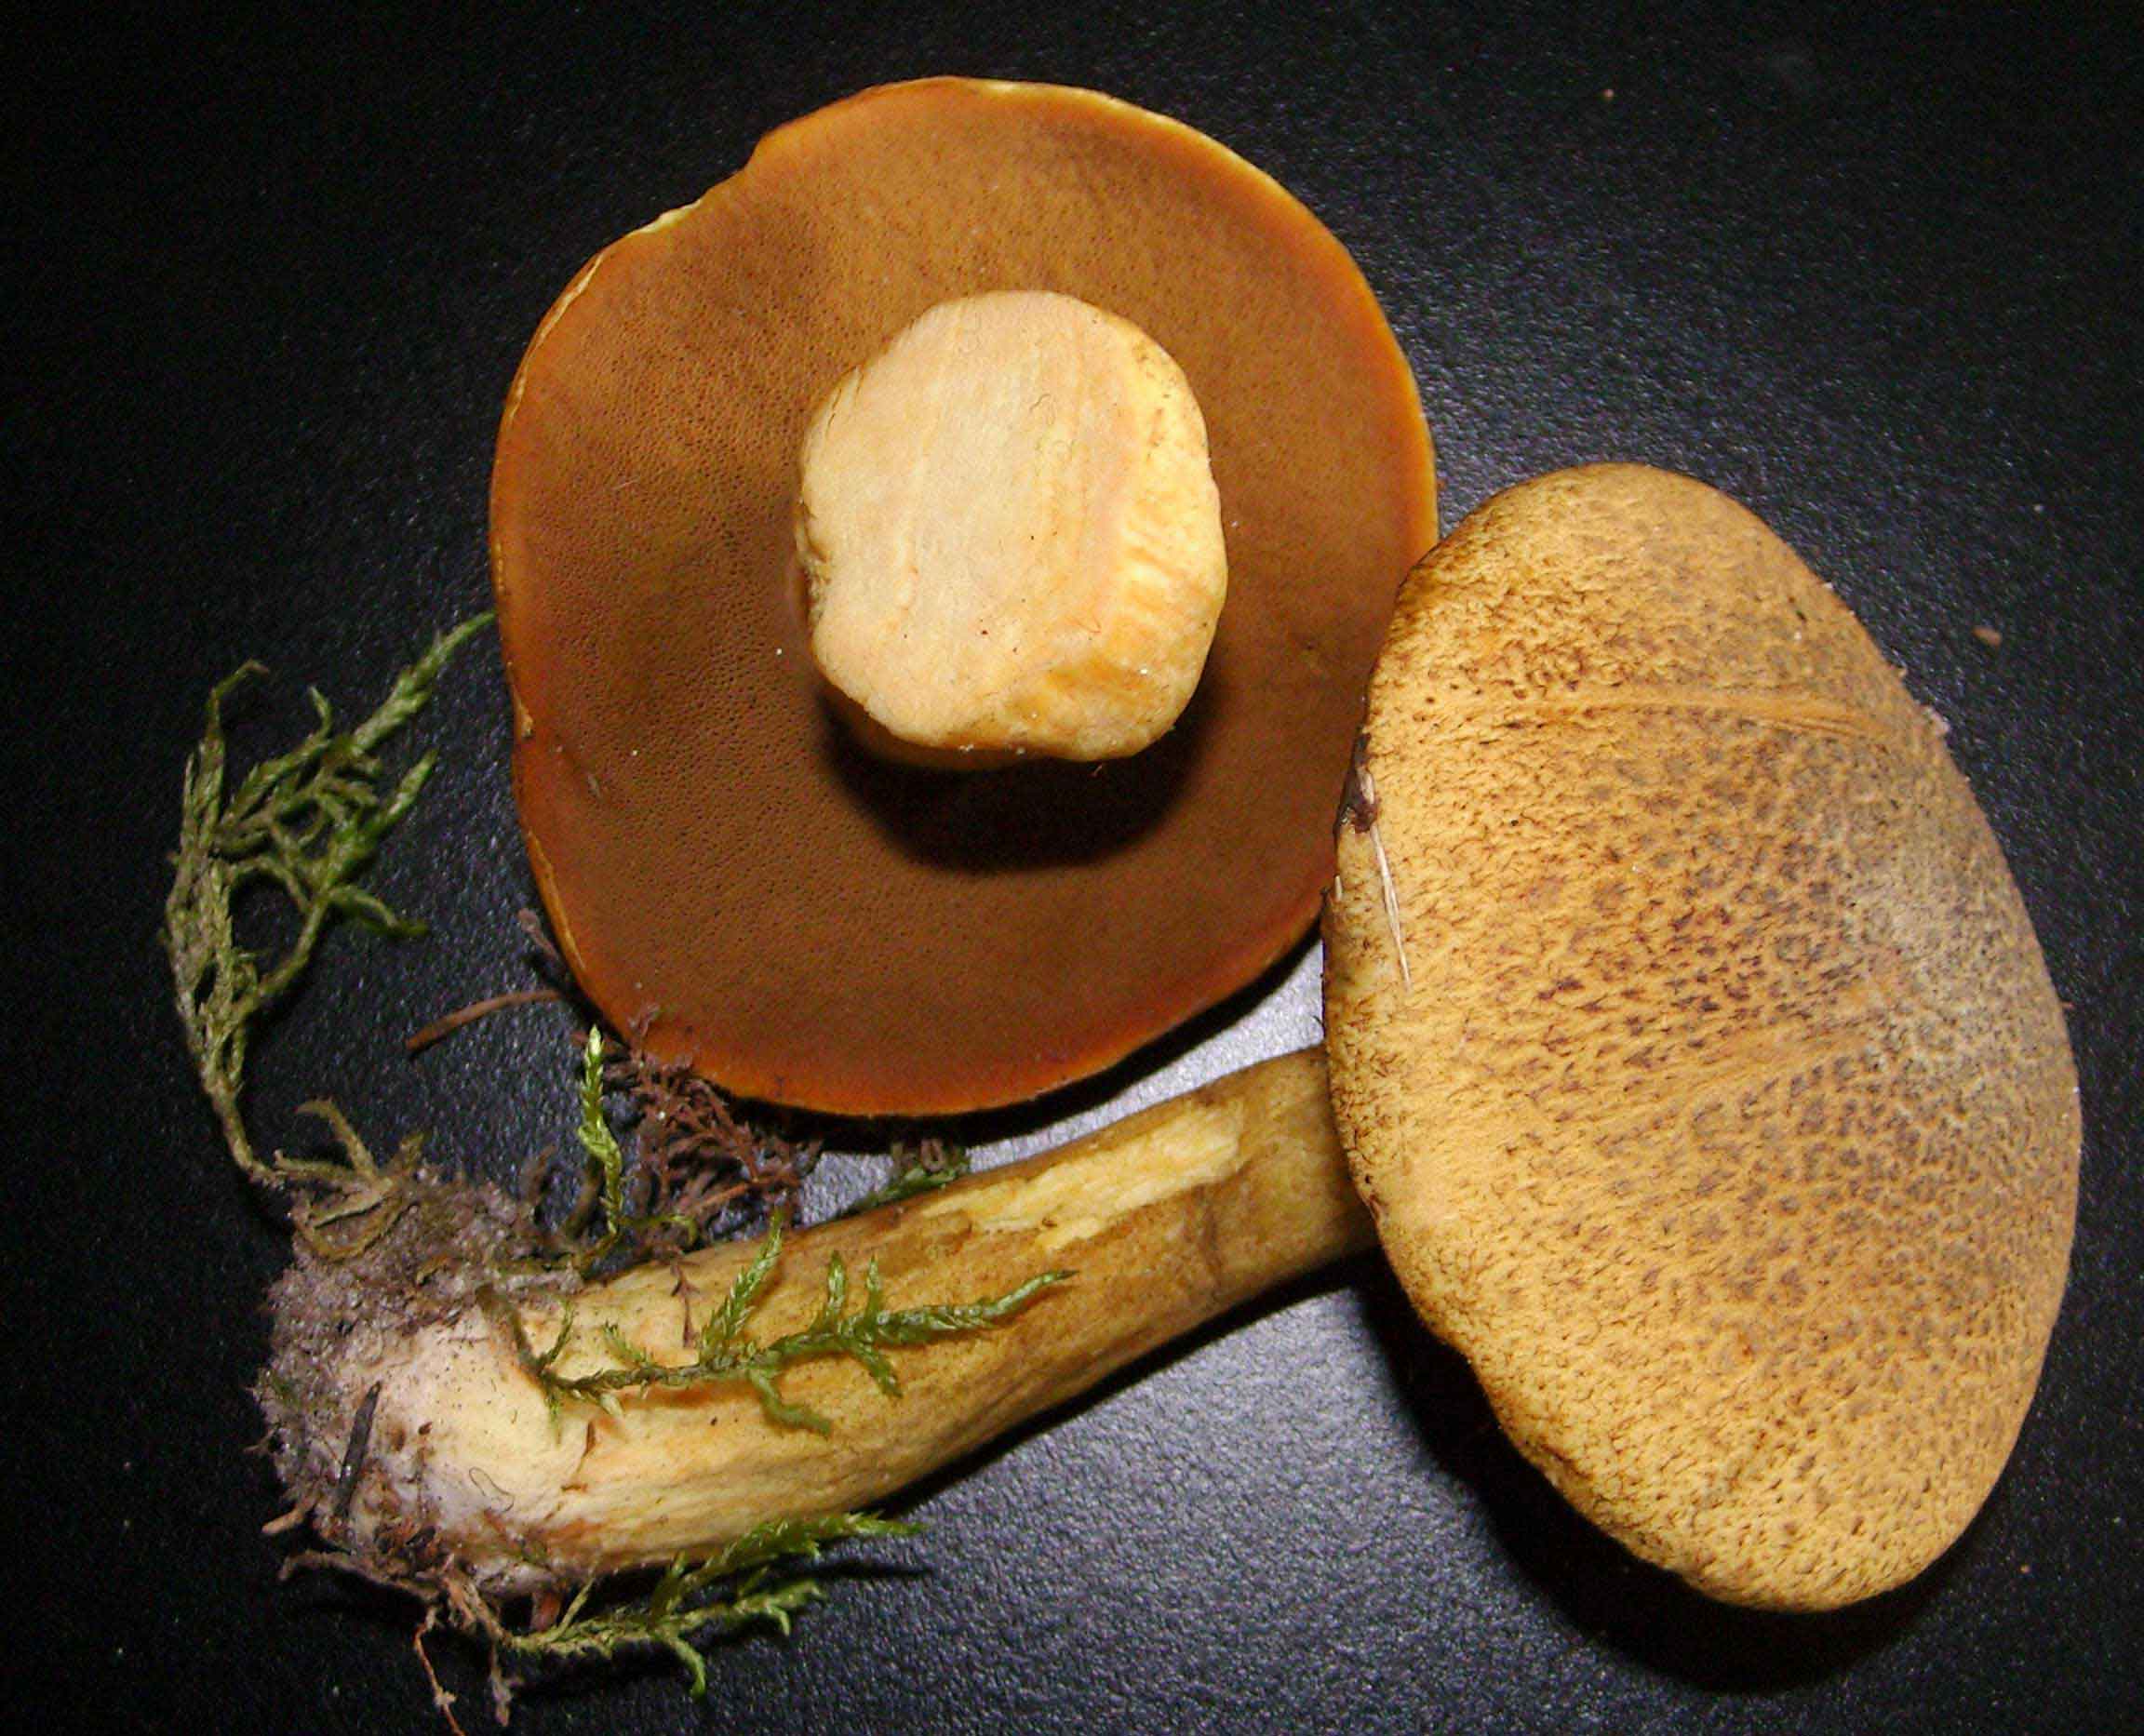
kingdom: Fungi
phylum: Basidiomycota
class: Agaricomycetes
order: Boletales
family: Suillaceae
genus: Suillus
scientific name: Suillus variegatus
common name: broget slimrørhat
